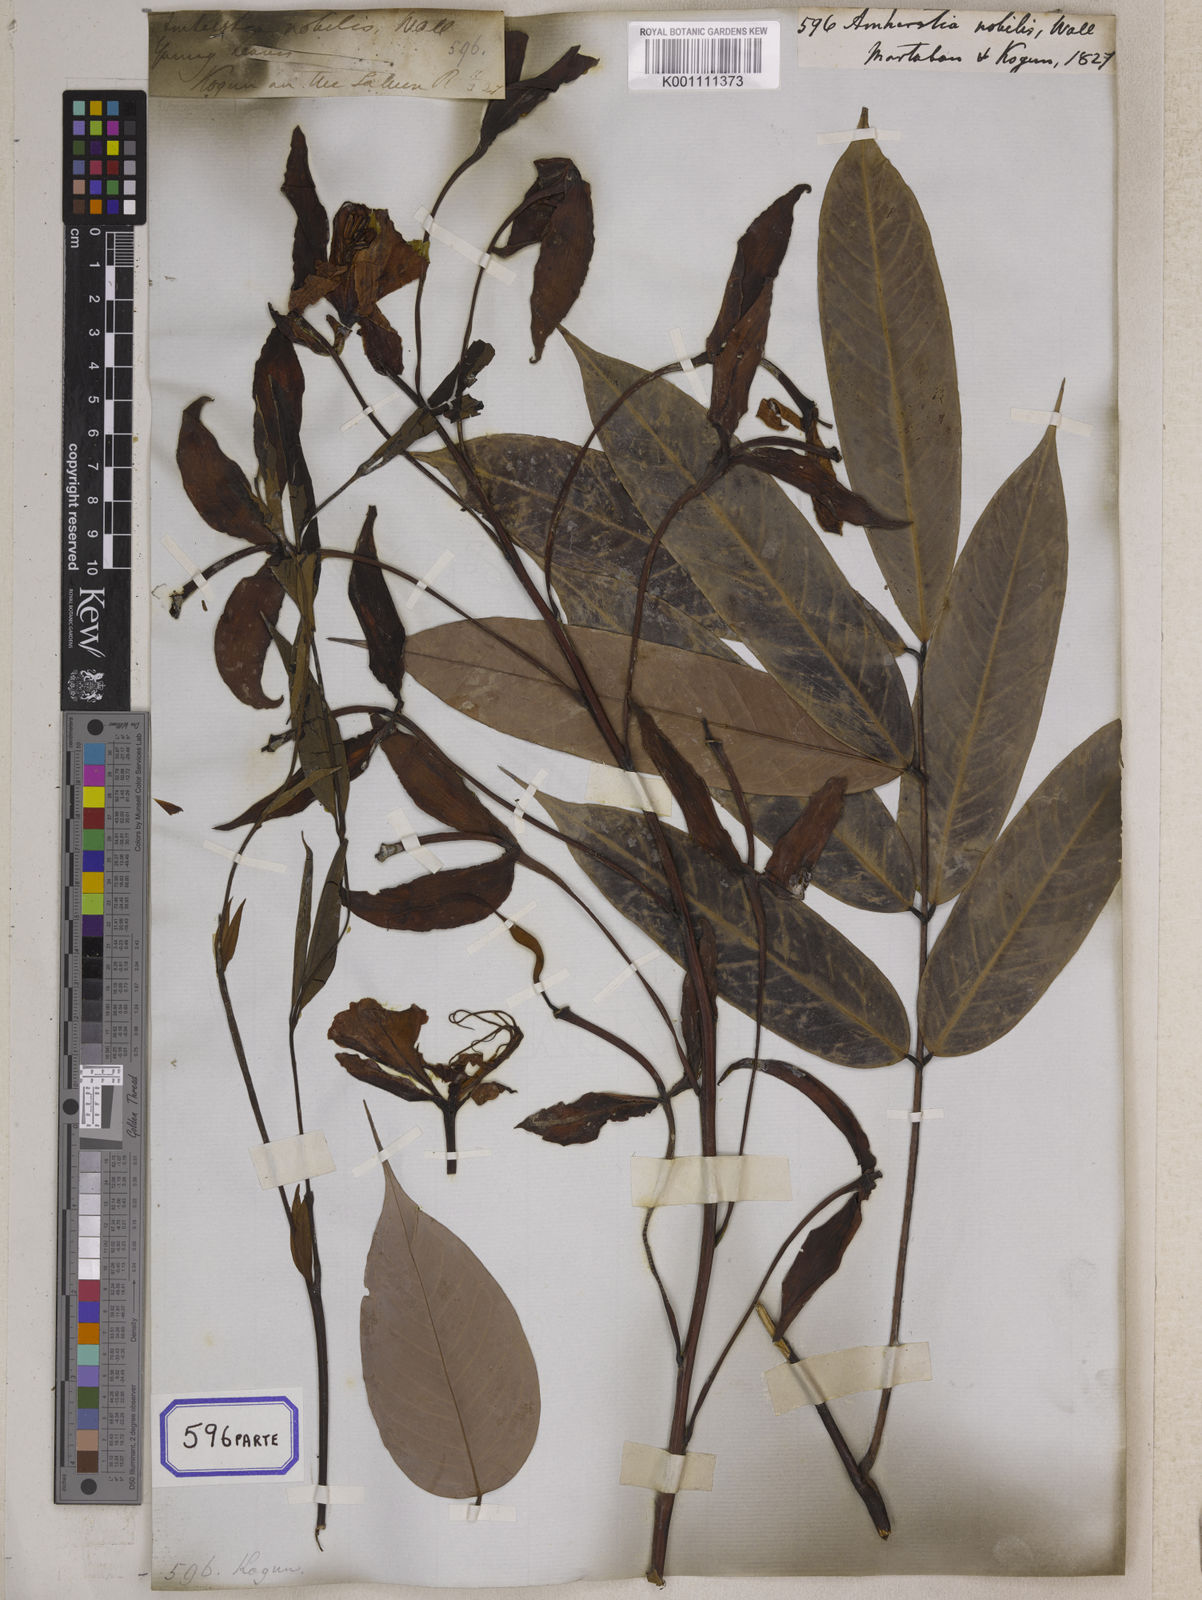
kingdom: Plantae
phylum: Tracheophyta
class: Magnoliopsida
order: Fabales
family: Fabaceae
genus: Amherstia
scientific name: Amherstia nobilis
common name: Pride-of-burma
